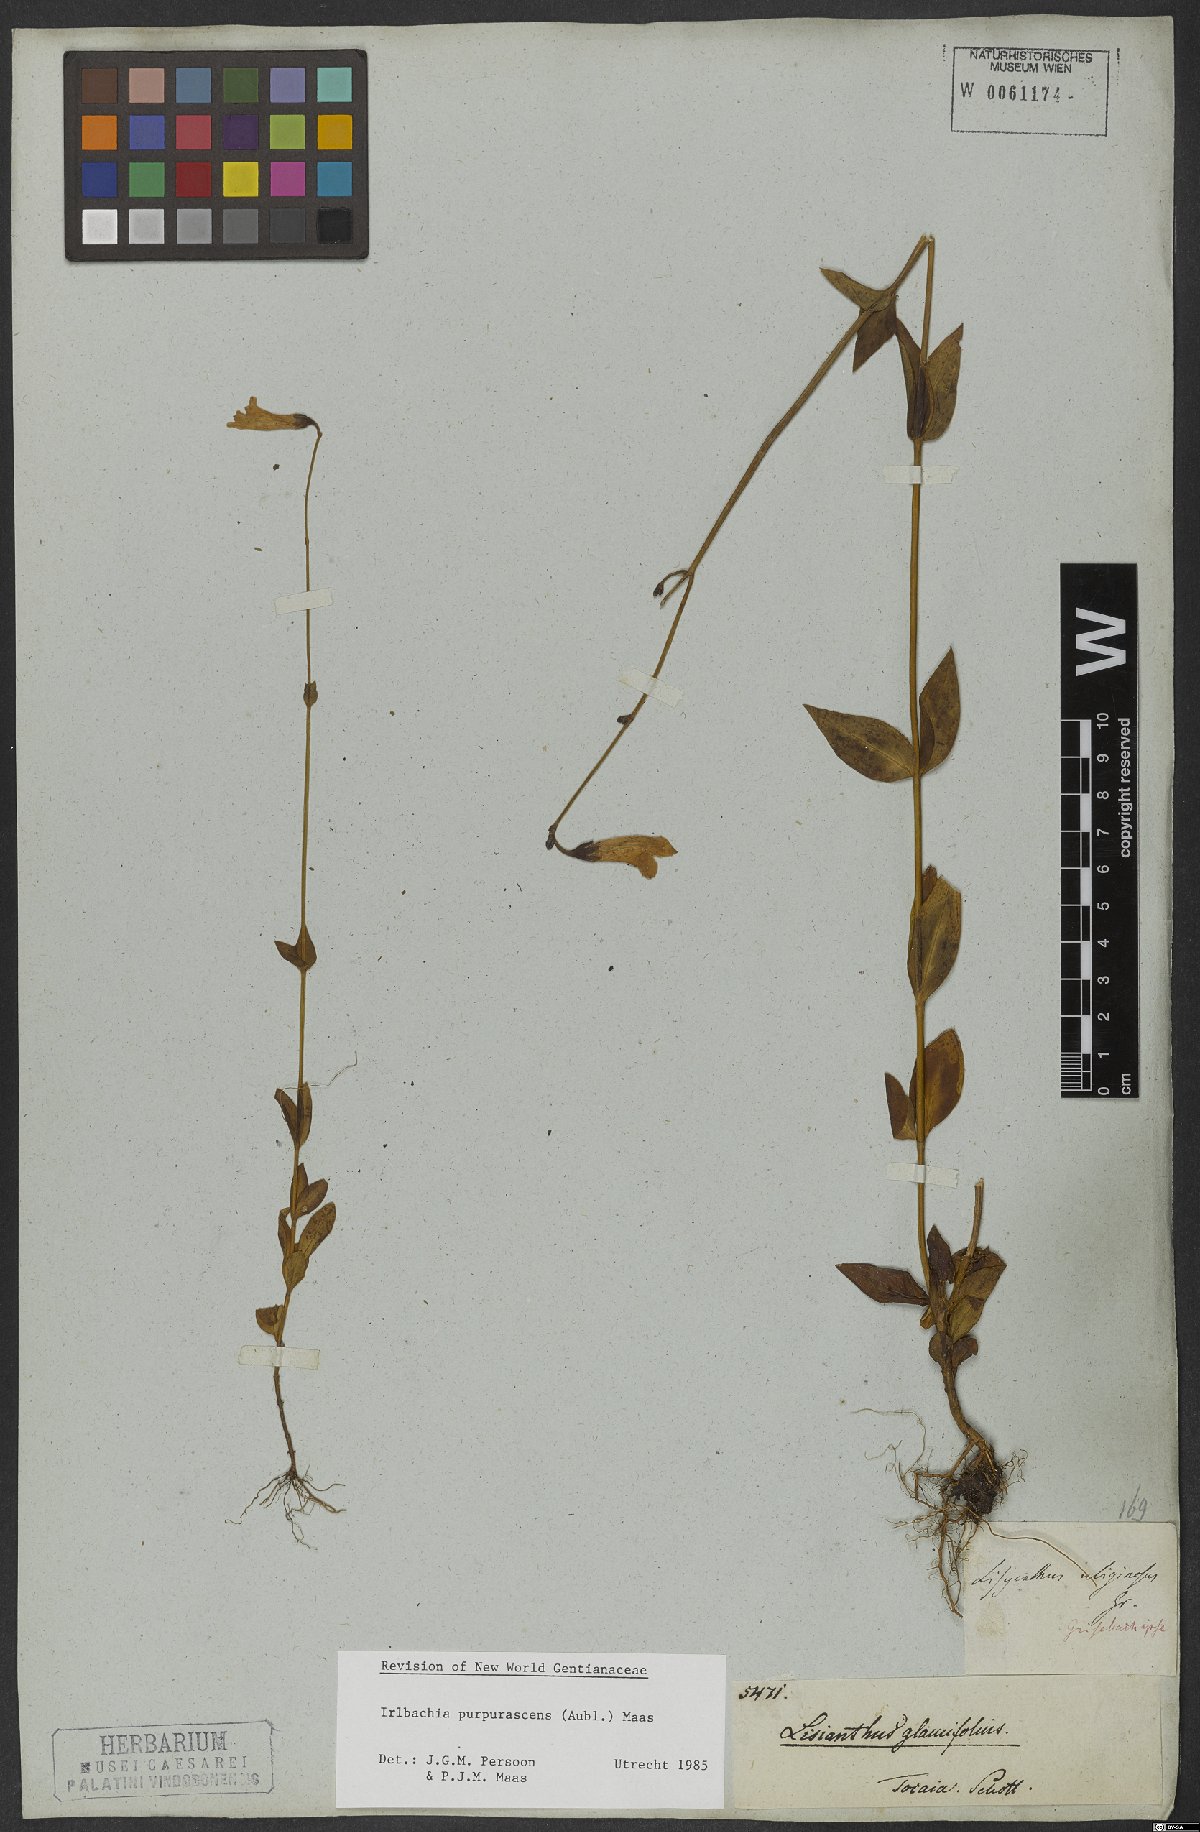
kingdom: Plantae
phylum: Tracheophyta
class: Magnoliopsida
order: Gentianales
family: Gentianaceae
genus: Chelonanthus
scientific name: Chelonanthus purpurascens
